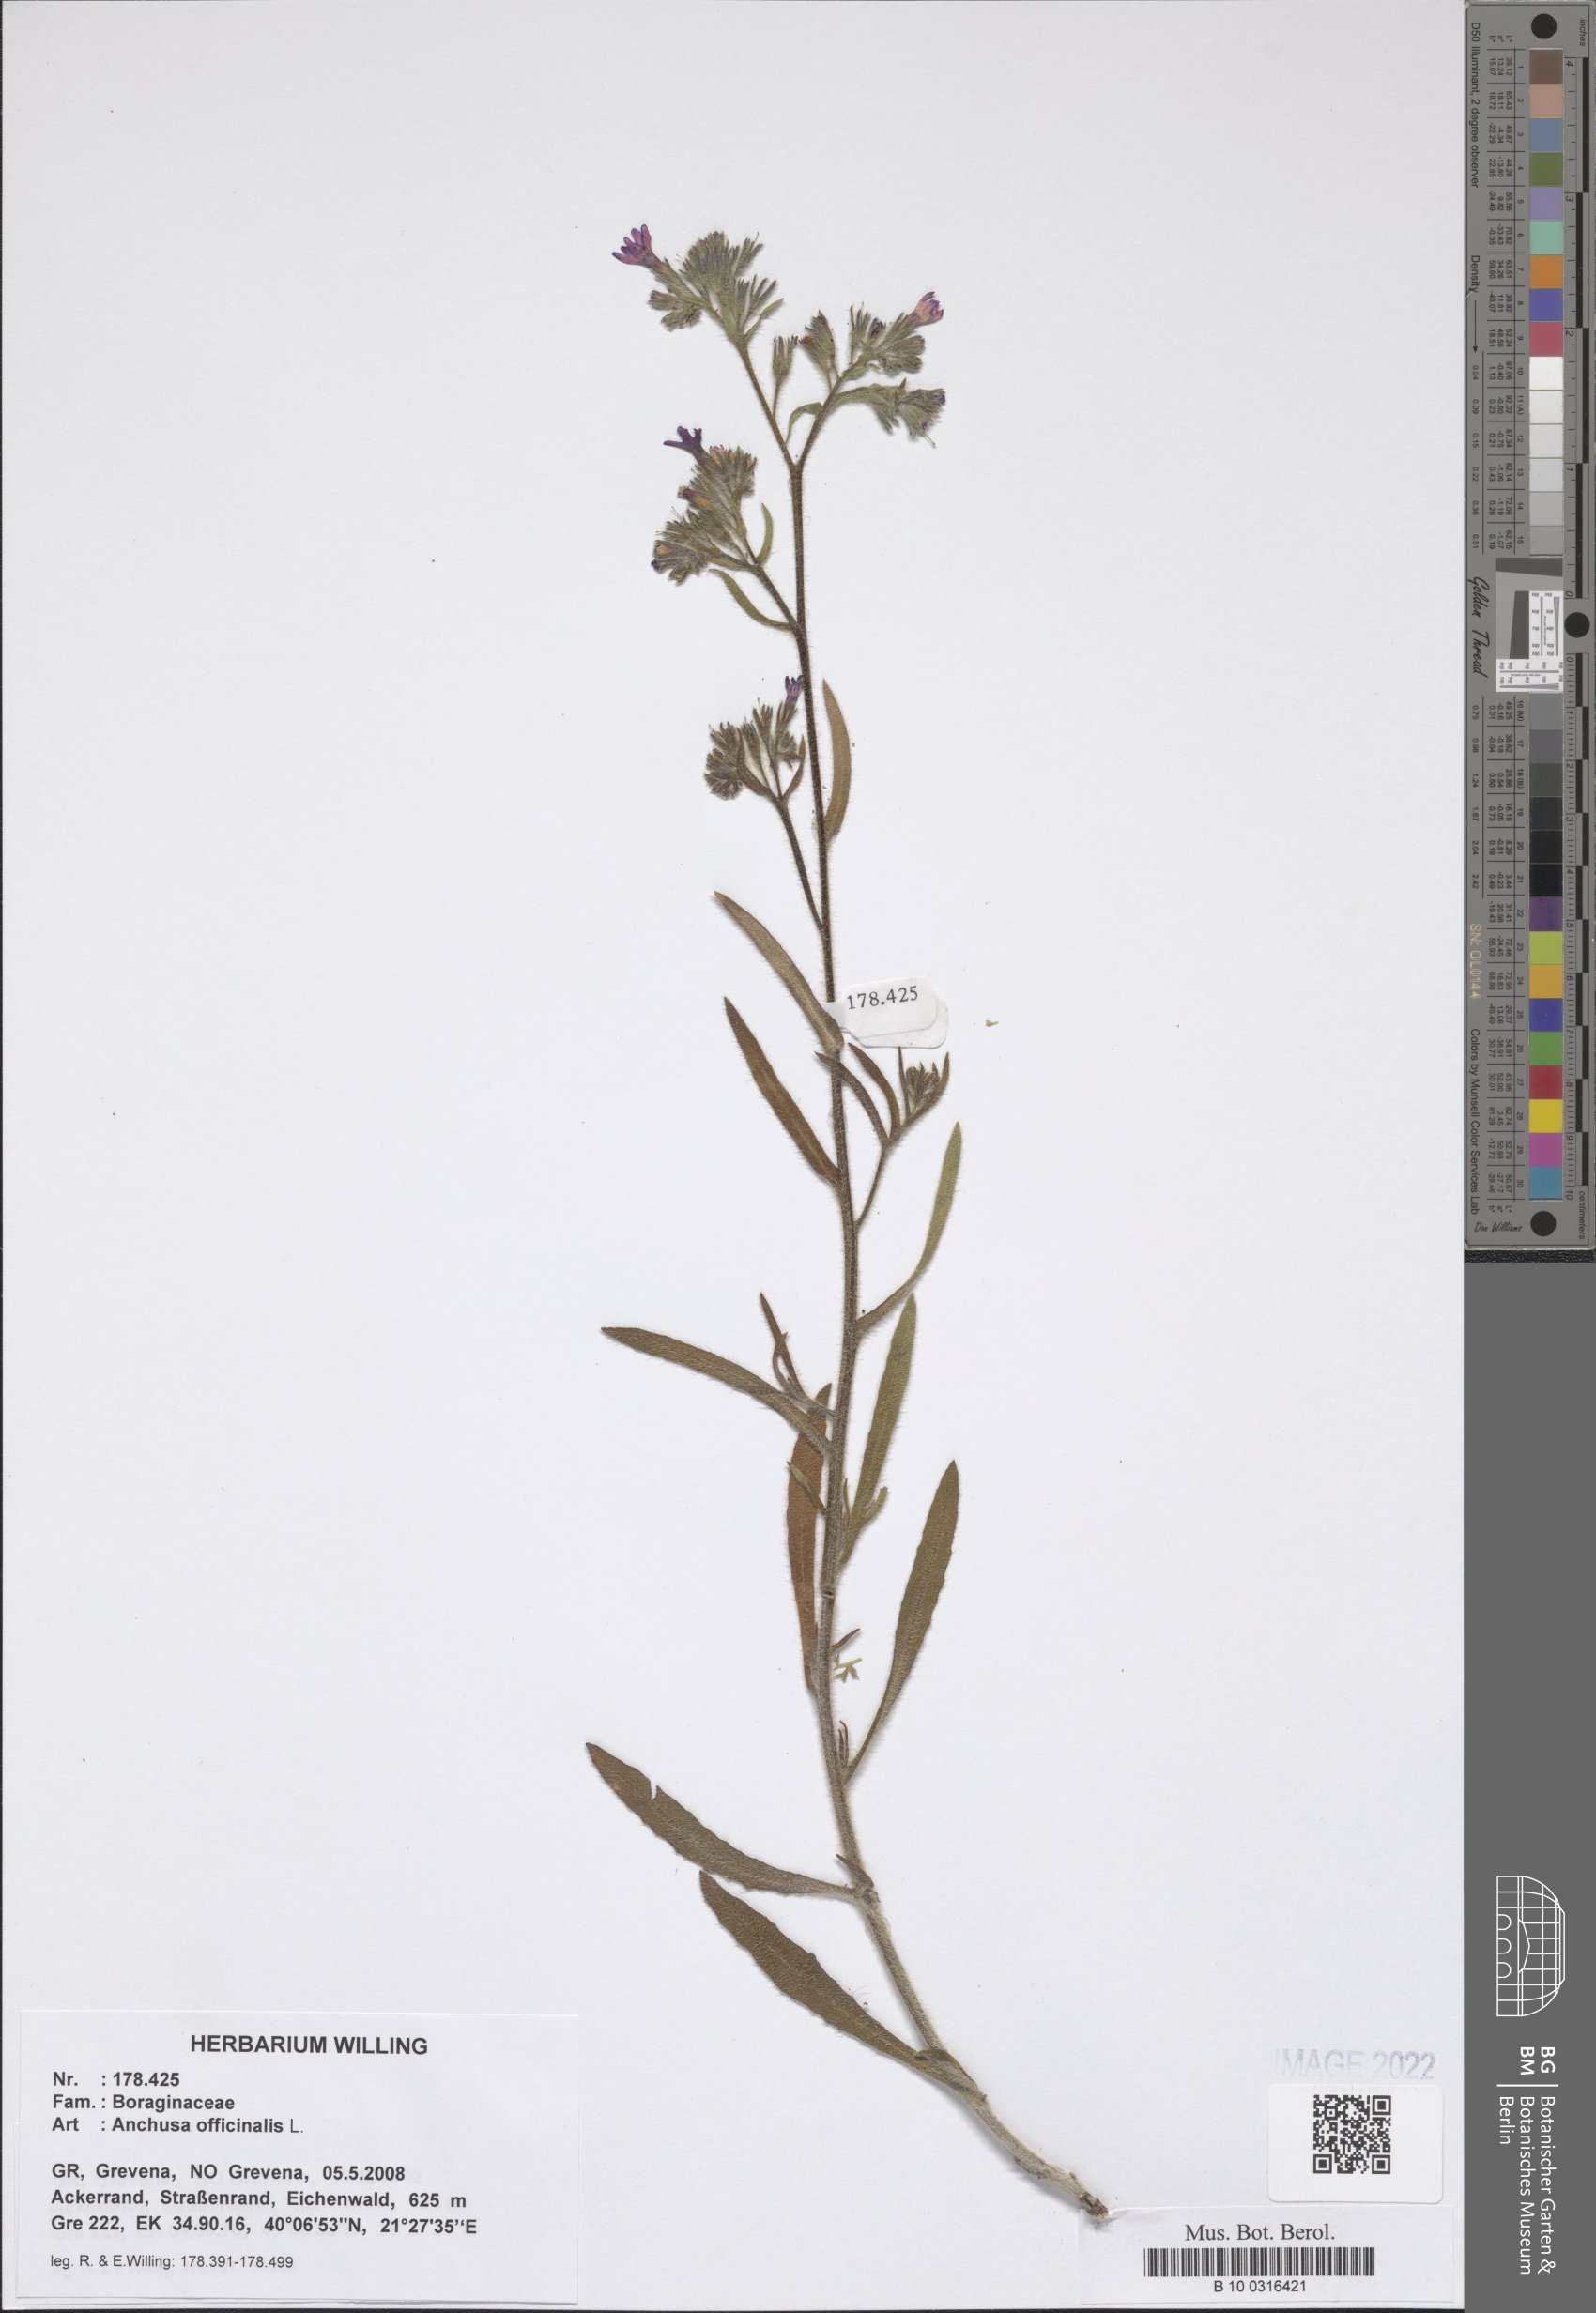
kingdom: Plantae
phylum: Tracheophyta
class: Magnoliopsida
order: Boraginales
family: Boraginaceae
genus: Anchusa
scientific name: Anchusa officinalis
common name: Alkanet
